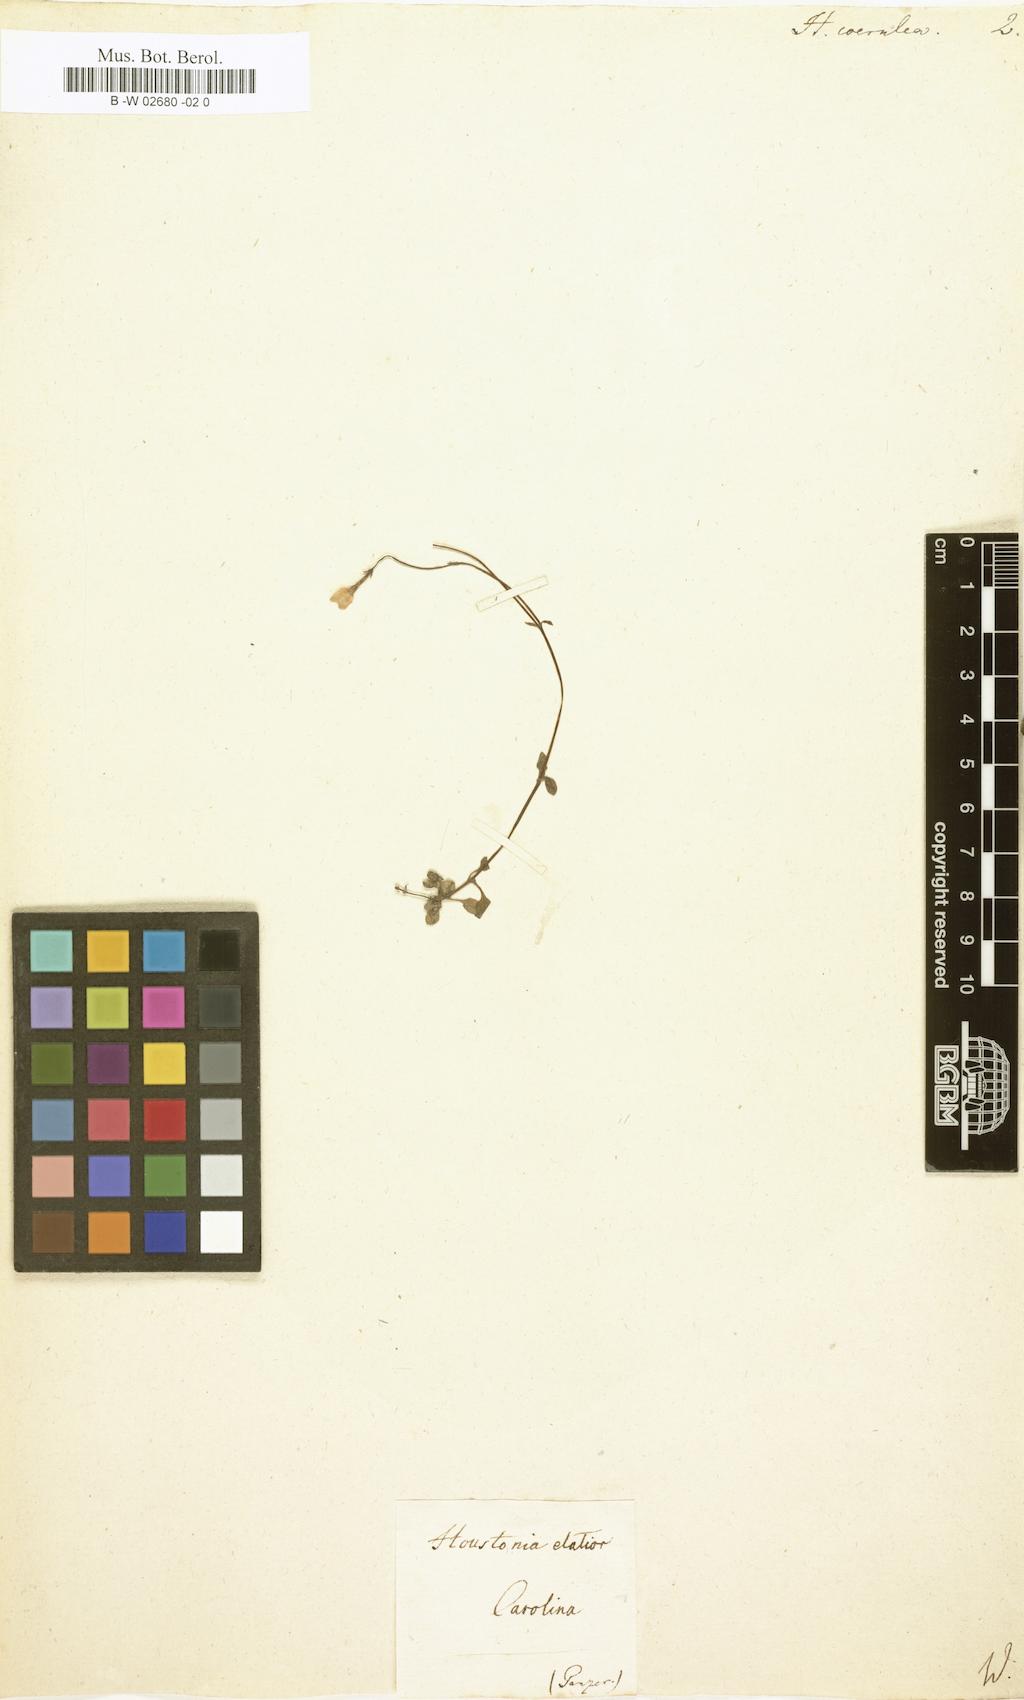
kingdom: Plantae
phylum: Tracheophyta
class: Magnoliopsida
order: Gentianales
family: Rubiaceae
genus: Houstonia
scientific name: Houstonia caerulea
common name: Bluets
